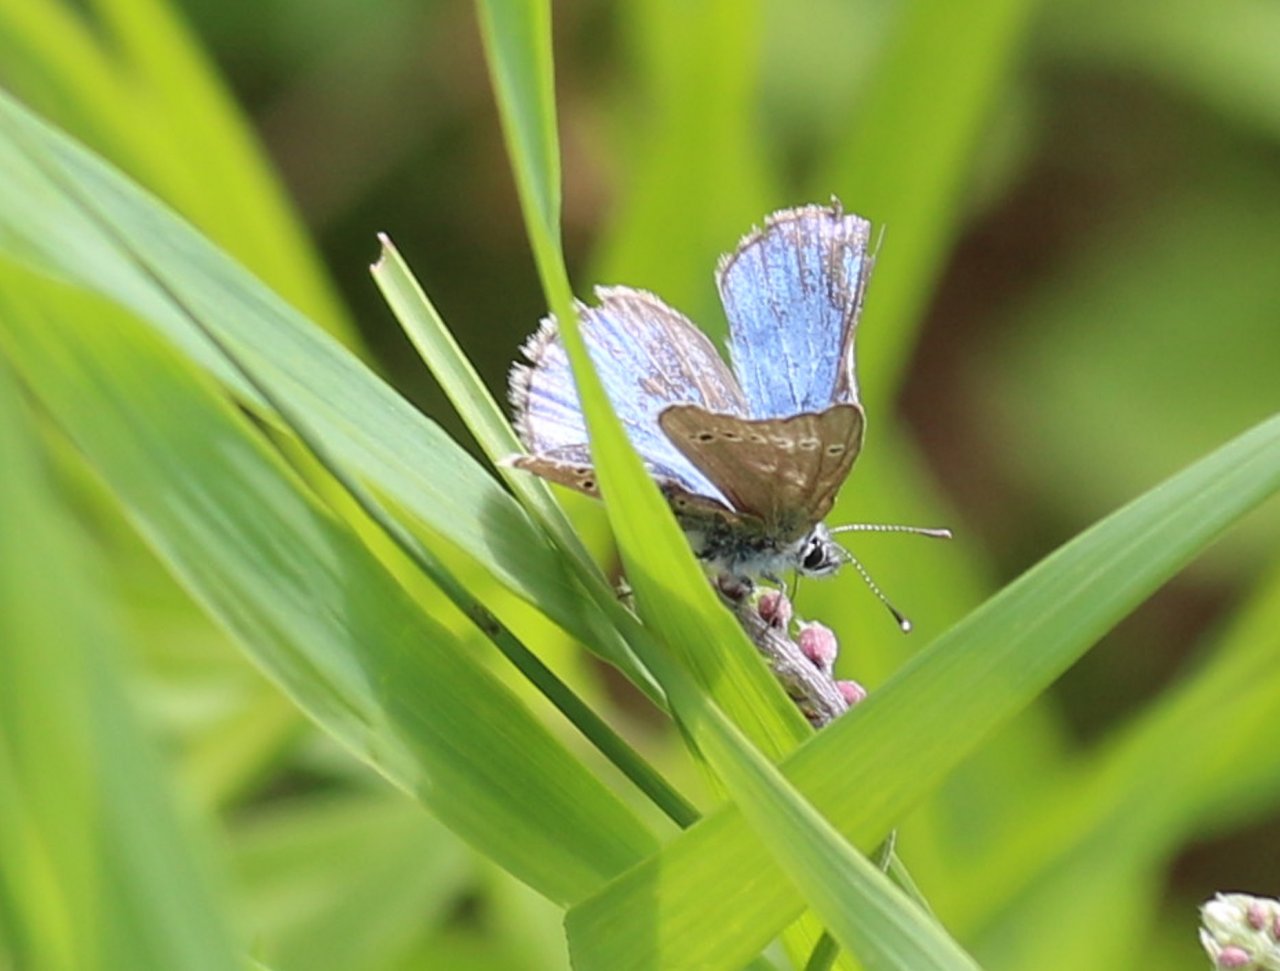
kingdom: Animalia
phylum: Arthropoda
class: Insecta
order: Lepidoptera
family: Lycaenidae
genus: Glaucopsyche
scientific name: Glaucopsyche lygdamus
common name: Silvery Blue
